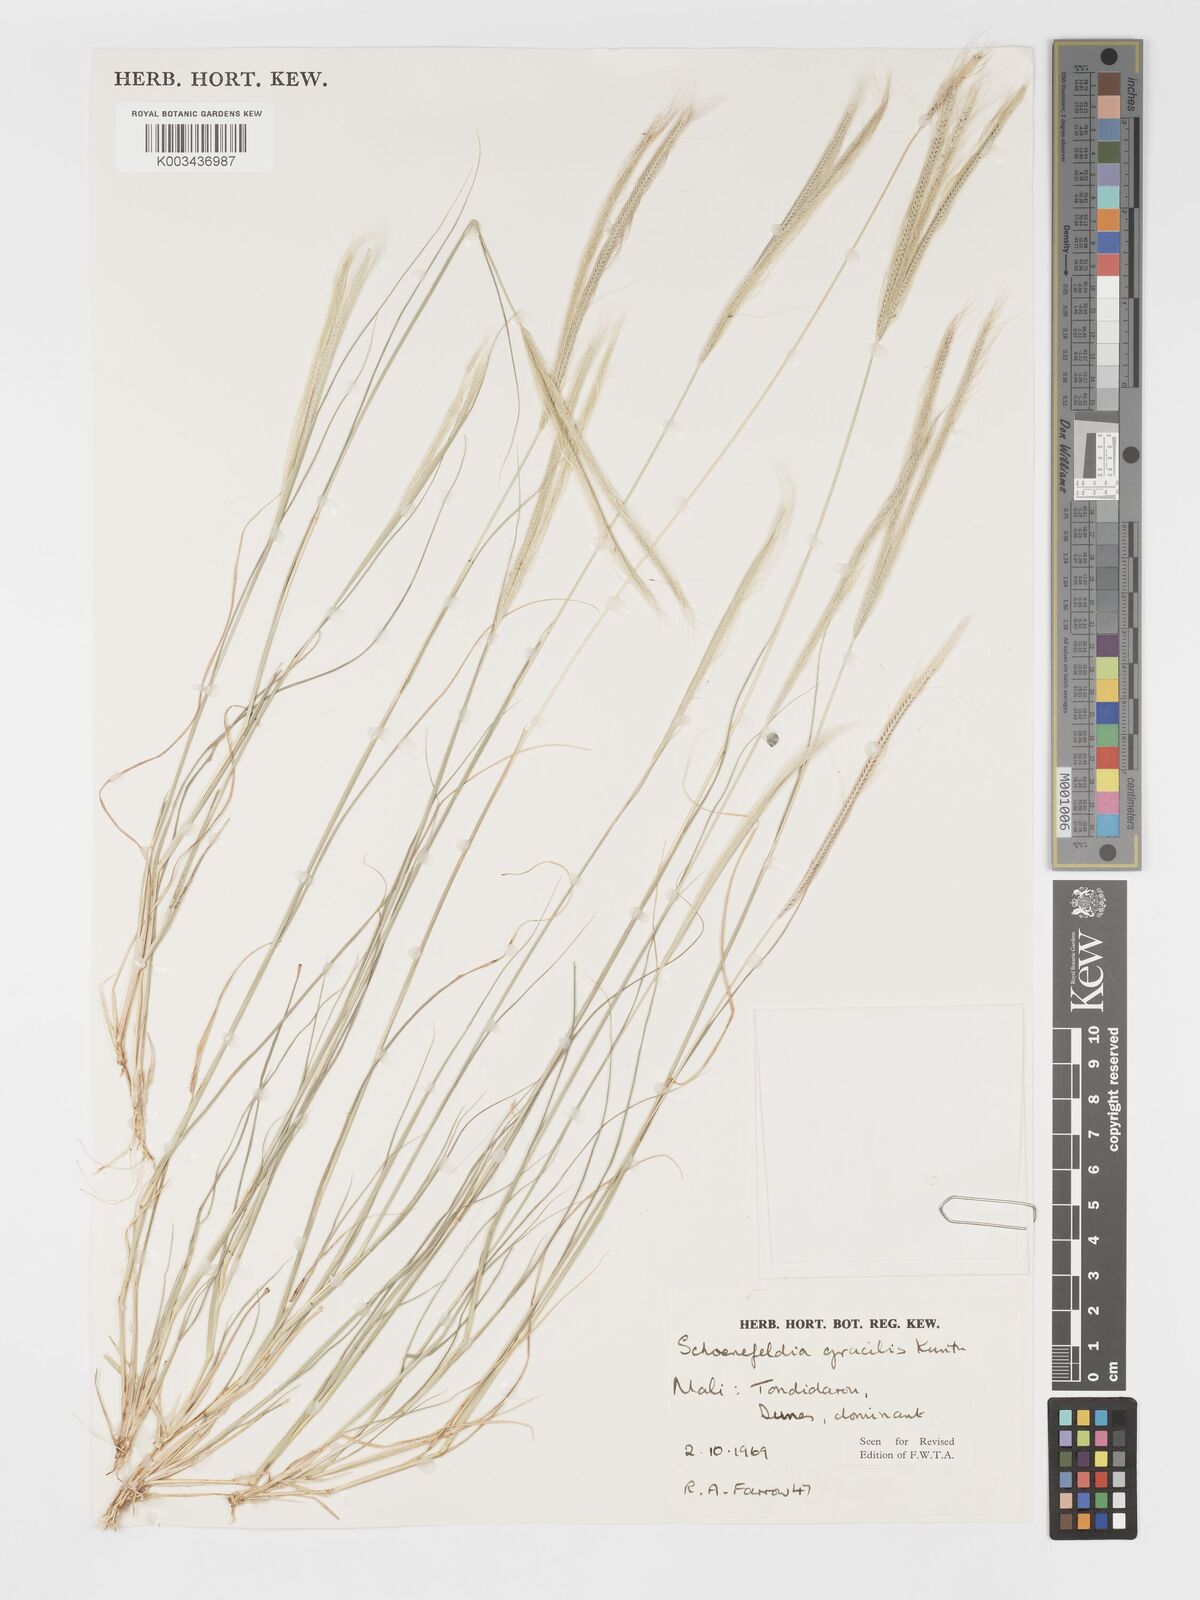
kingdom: Plantae
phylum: Tracheophyta
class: Liliopsida
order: Poales
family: Poaceae
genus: Schoenefeldia
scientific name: Schoenefeldia gracilis
